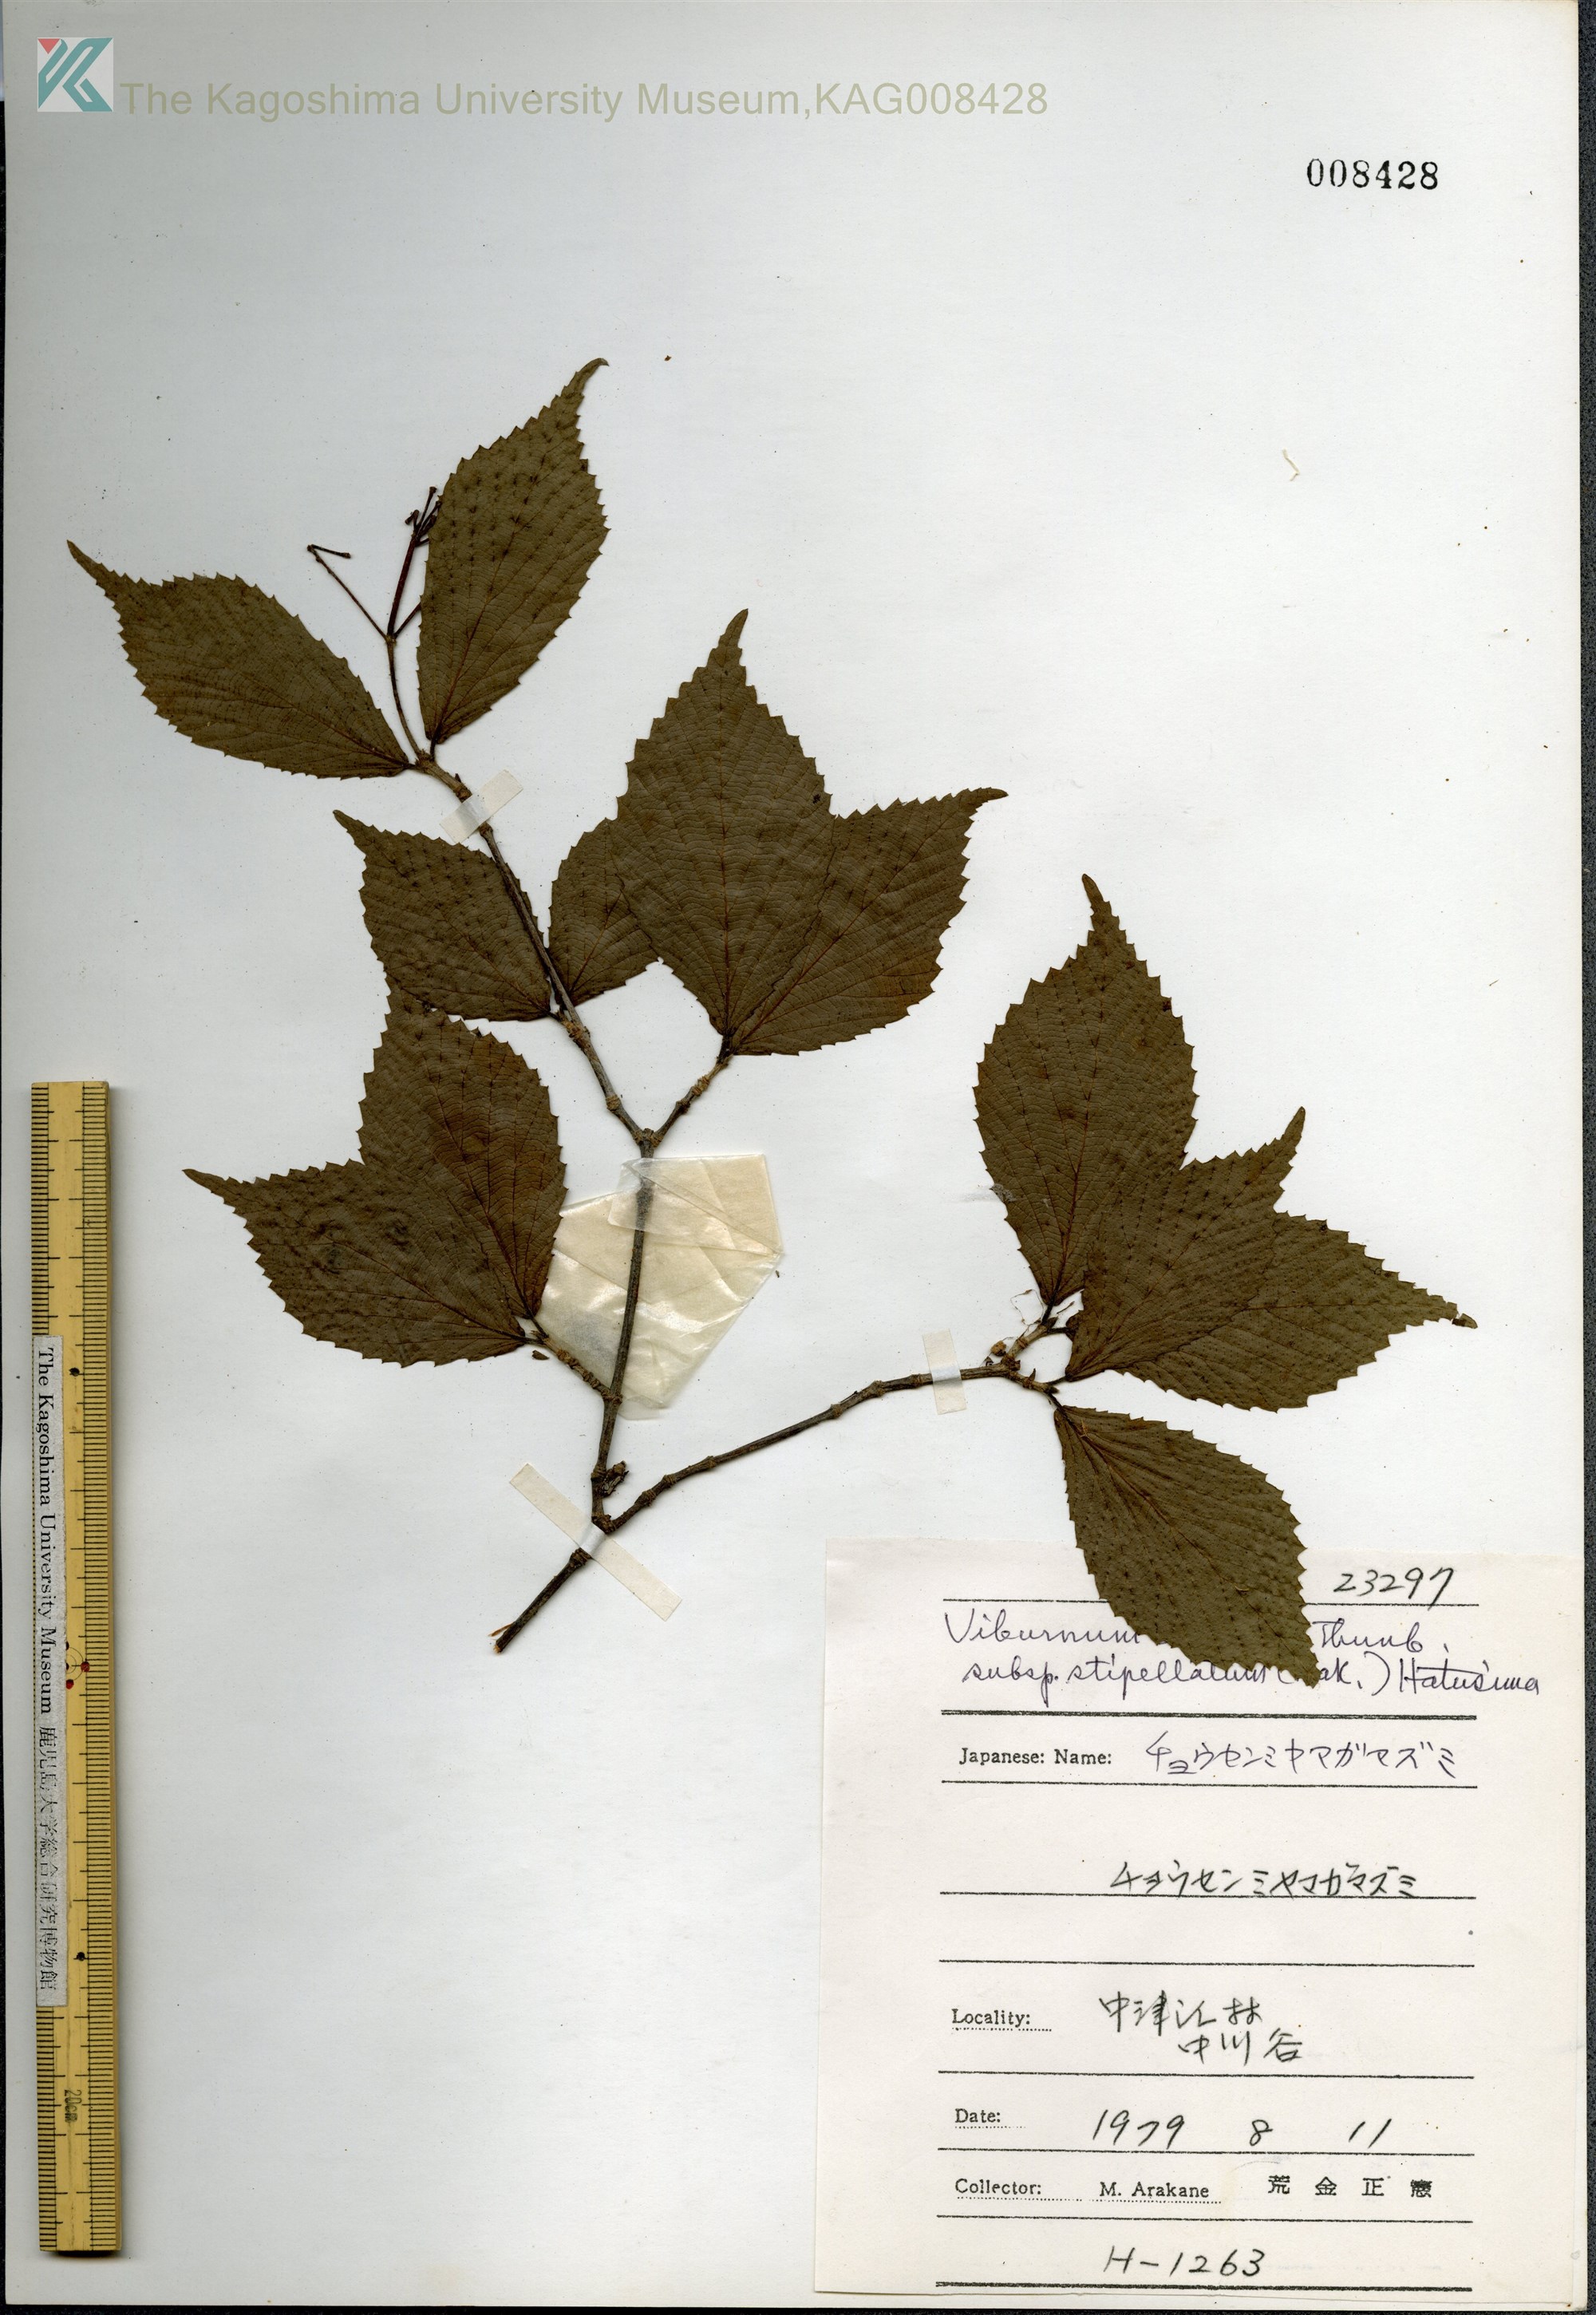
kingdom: Plantae
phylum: Tracheophyta
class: Magnoliopsida
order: Dipsacales
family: Viburnaceae
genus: Viburnum
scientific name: Viburnum erosum
